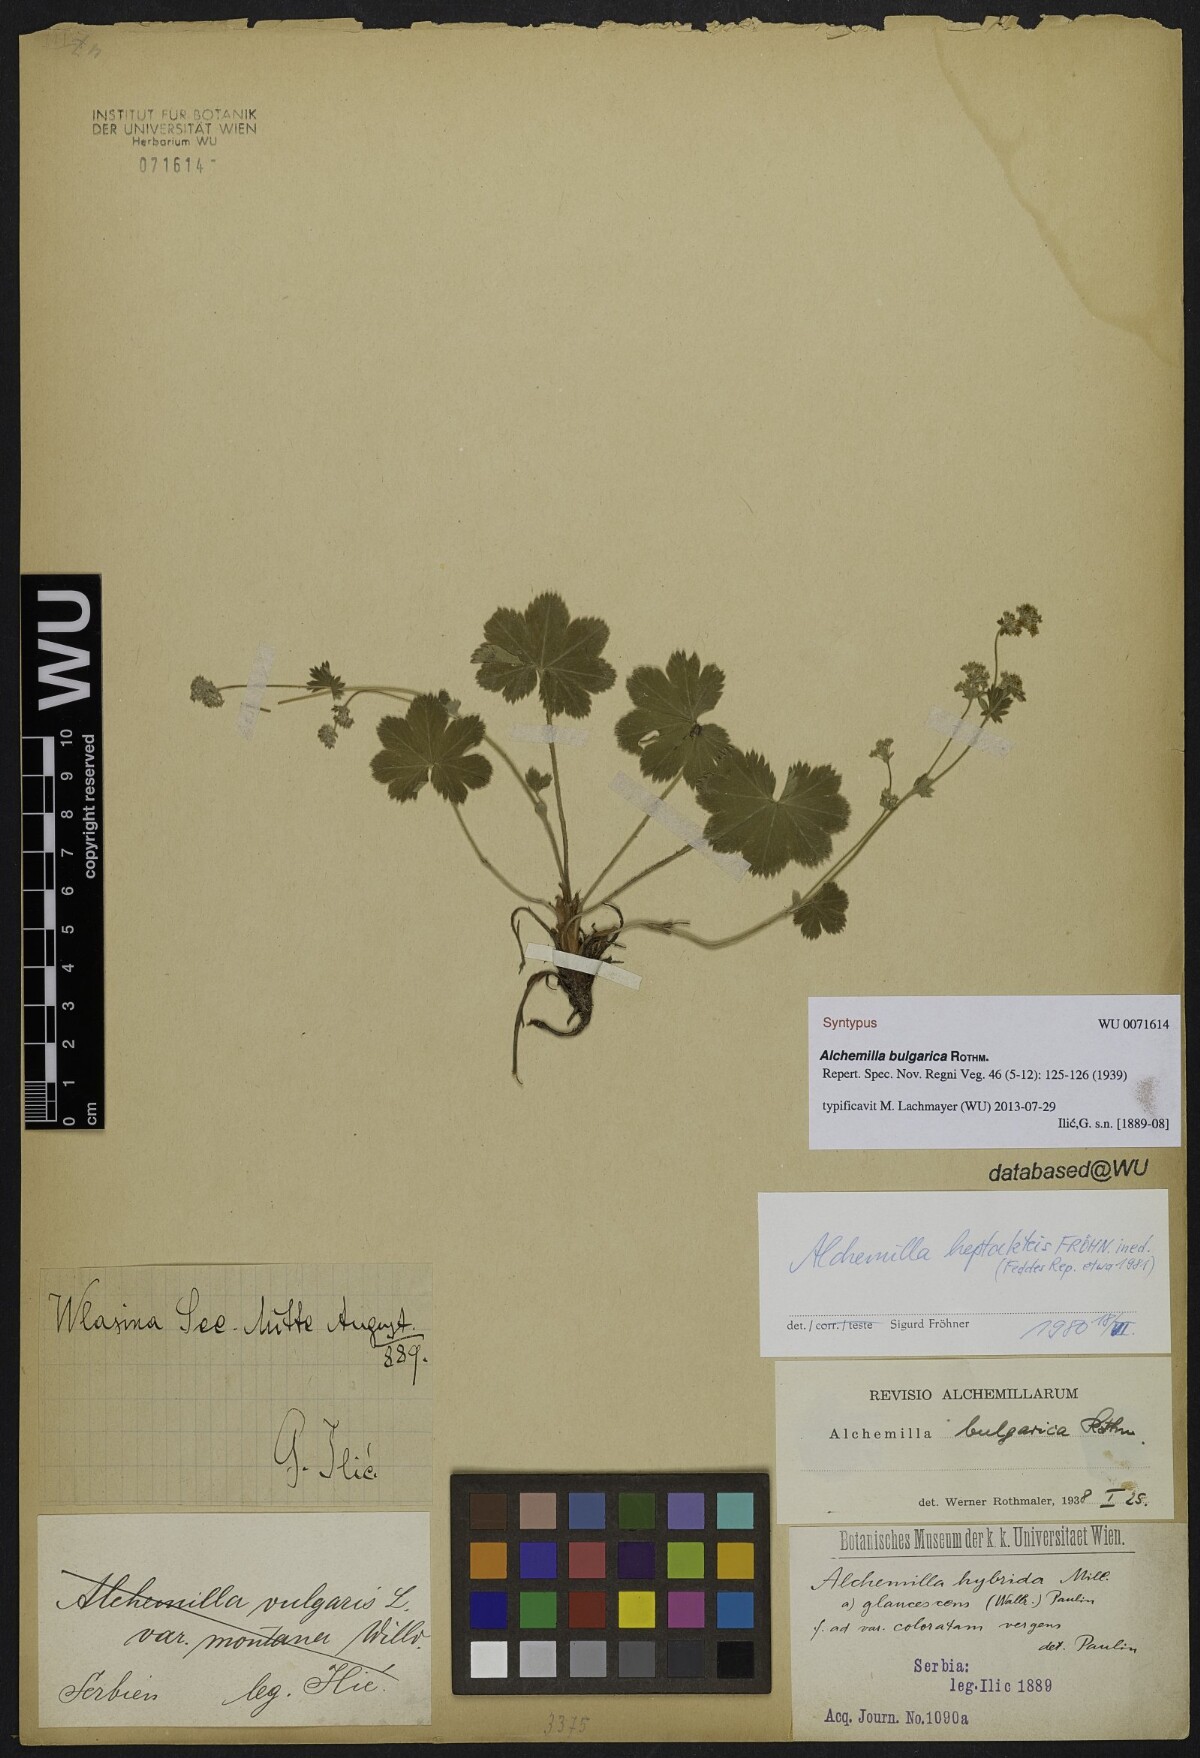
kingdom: Plantae
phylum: Tracheophyta
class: Magnoliopsida
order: Rosales
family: Rosaceae
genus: Alchemilla
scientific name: Alchemilla bulgarica
